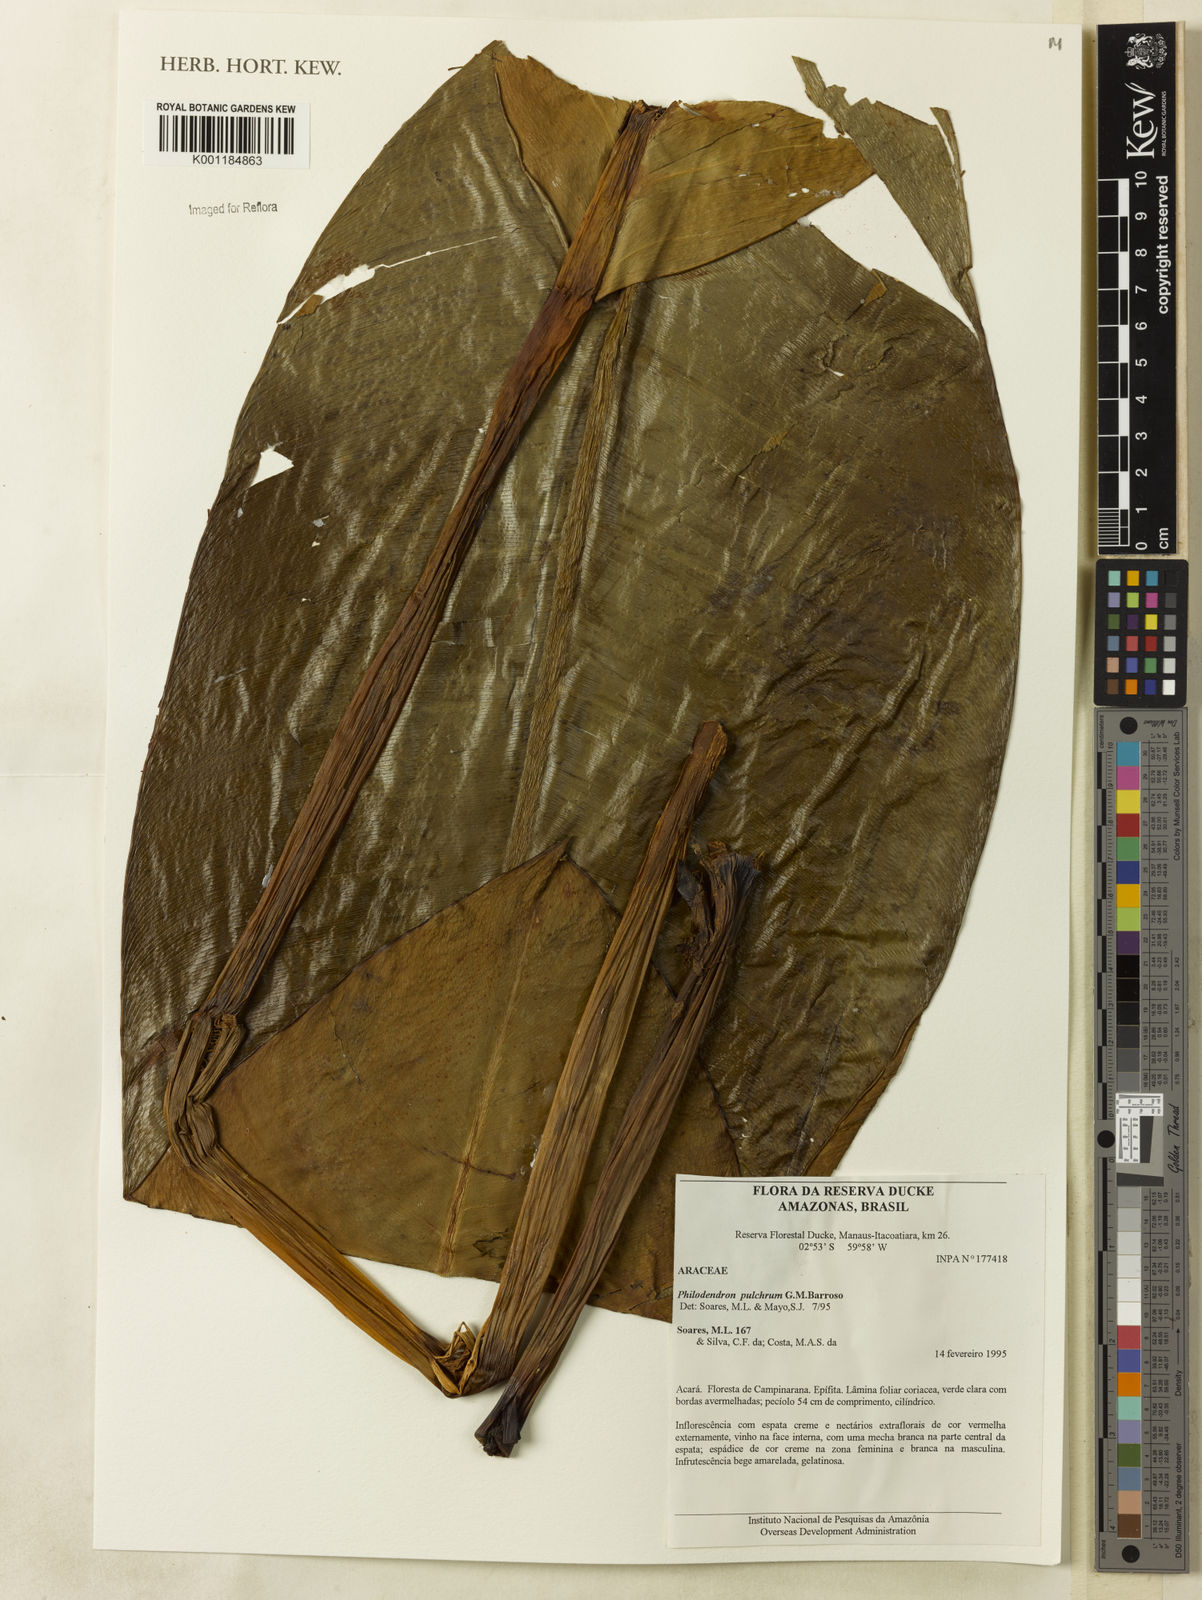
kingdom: Plantae
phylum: Tracheophyta
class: Liliopsida
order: Alismatales
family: Araceae
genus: Philodendron
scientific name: Philodendron pulchrum
